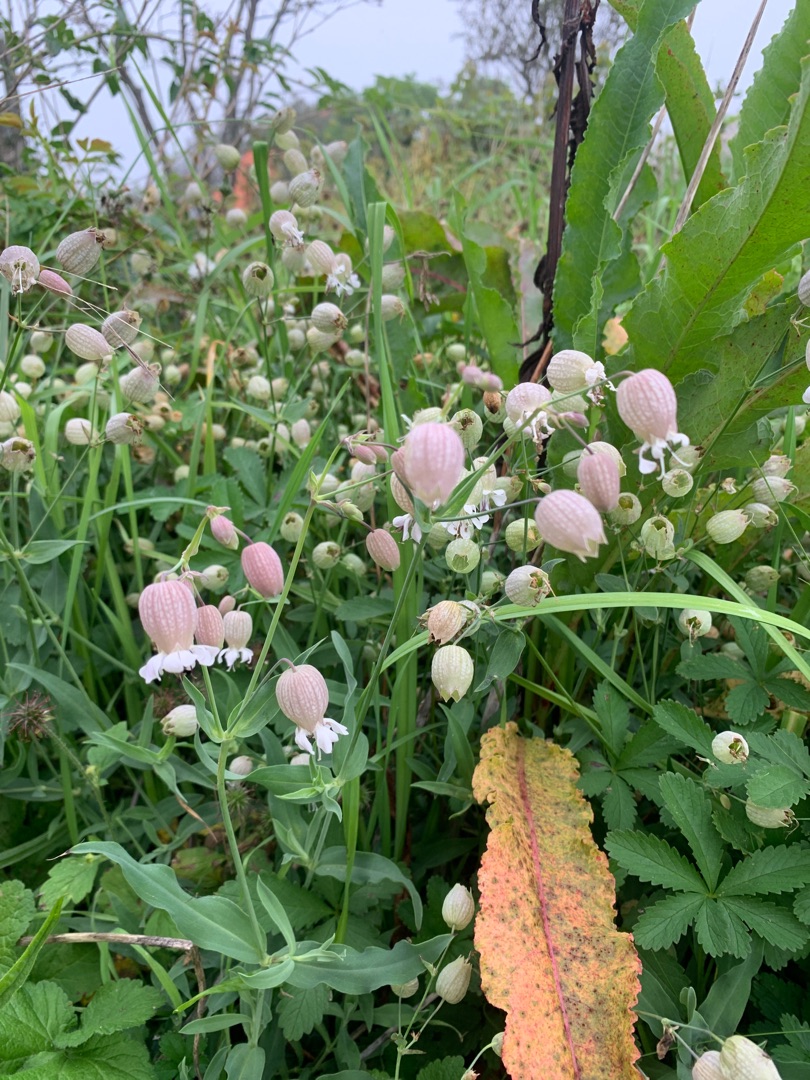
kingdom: Plantae
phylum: Tracheophyta
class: Magnoliopsida
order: Caryophyllales
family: Caryophyllaceae
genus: Silene
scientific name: Silene vulgaris
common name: Blæresmælde
